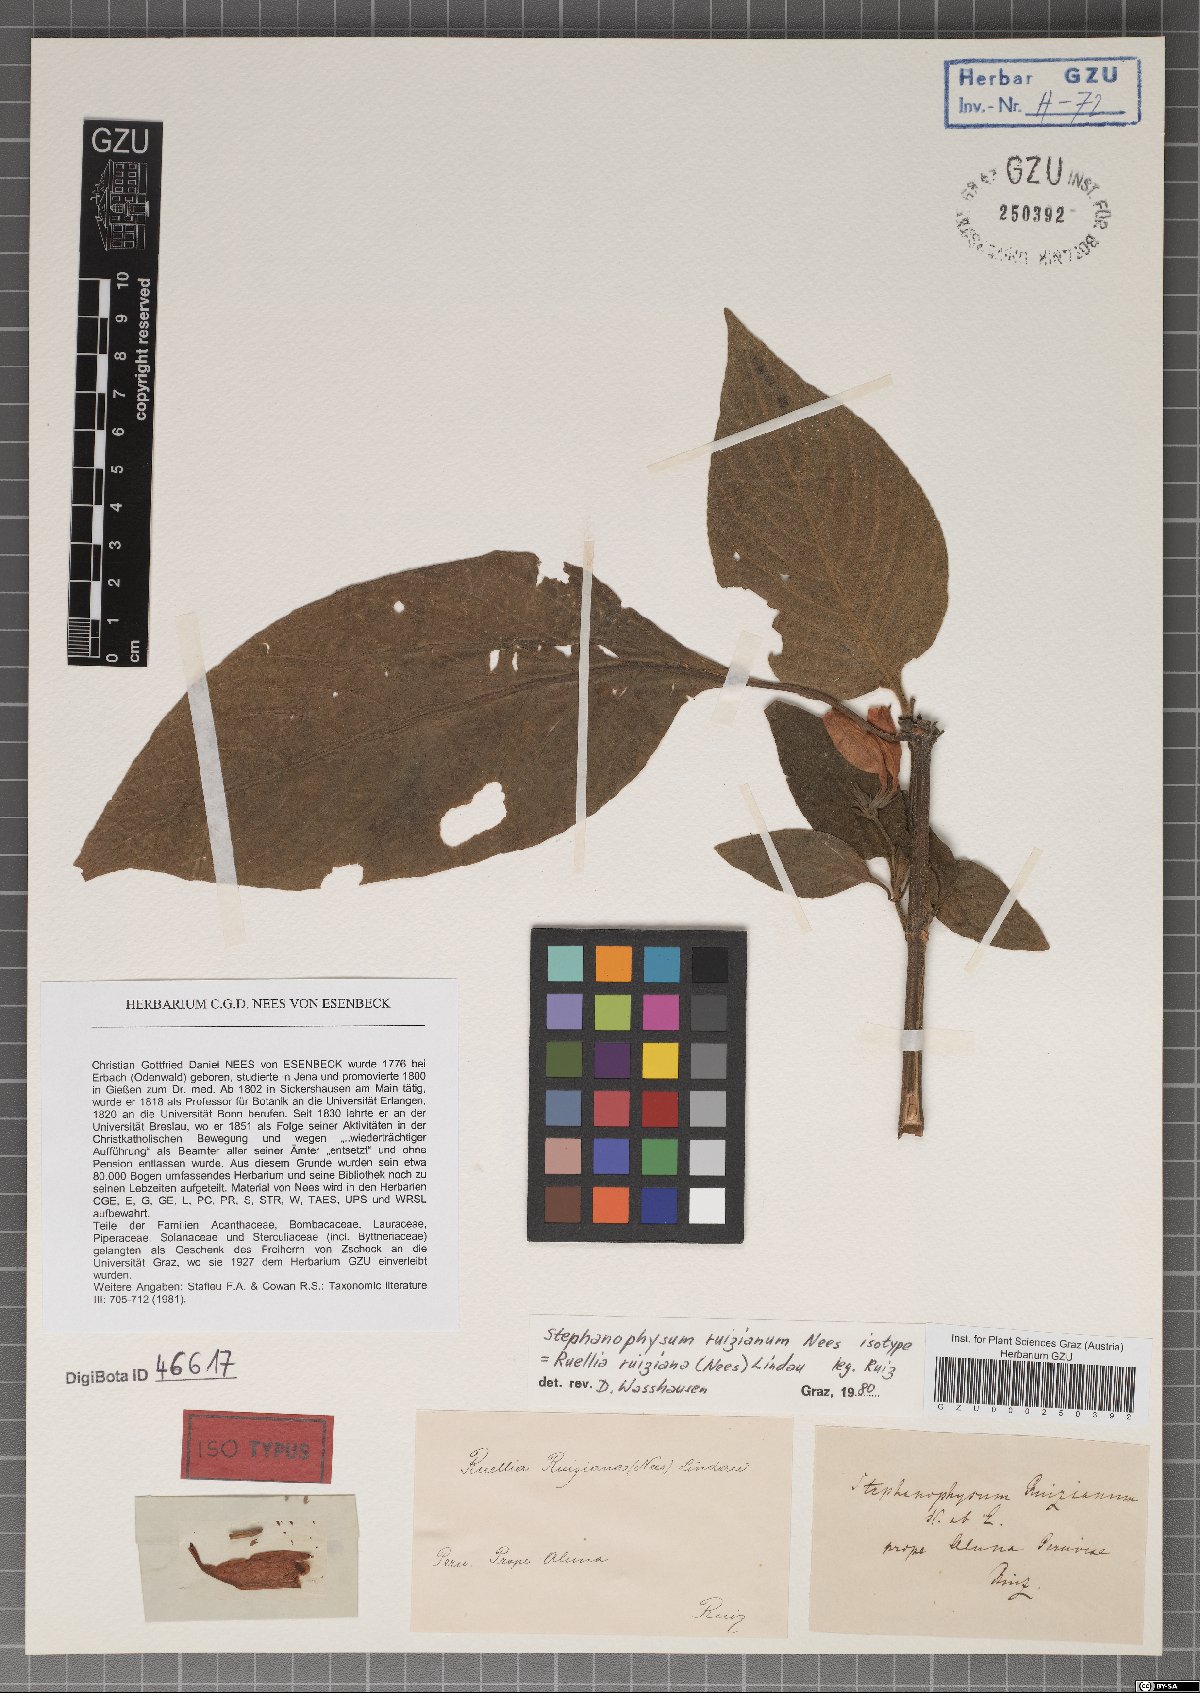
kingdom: Plantae
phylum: Tracheophyta
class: Magnoliopsida
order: Lamiales
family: Acanthaceae
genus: Ruellia
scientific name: Ruellia ruiziana
